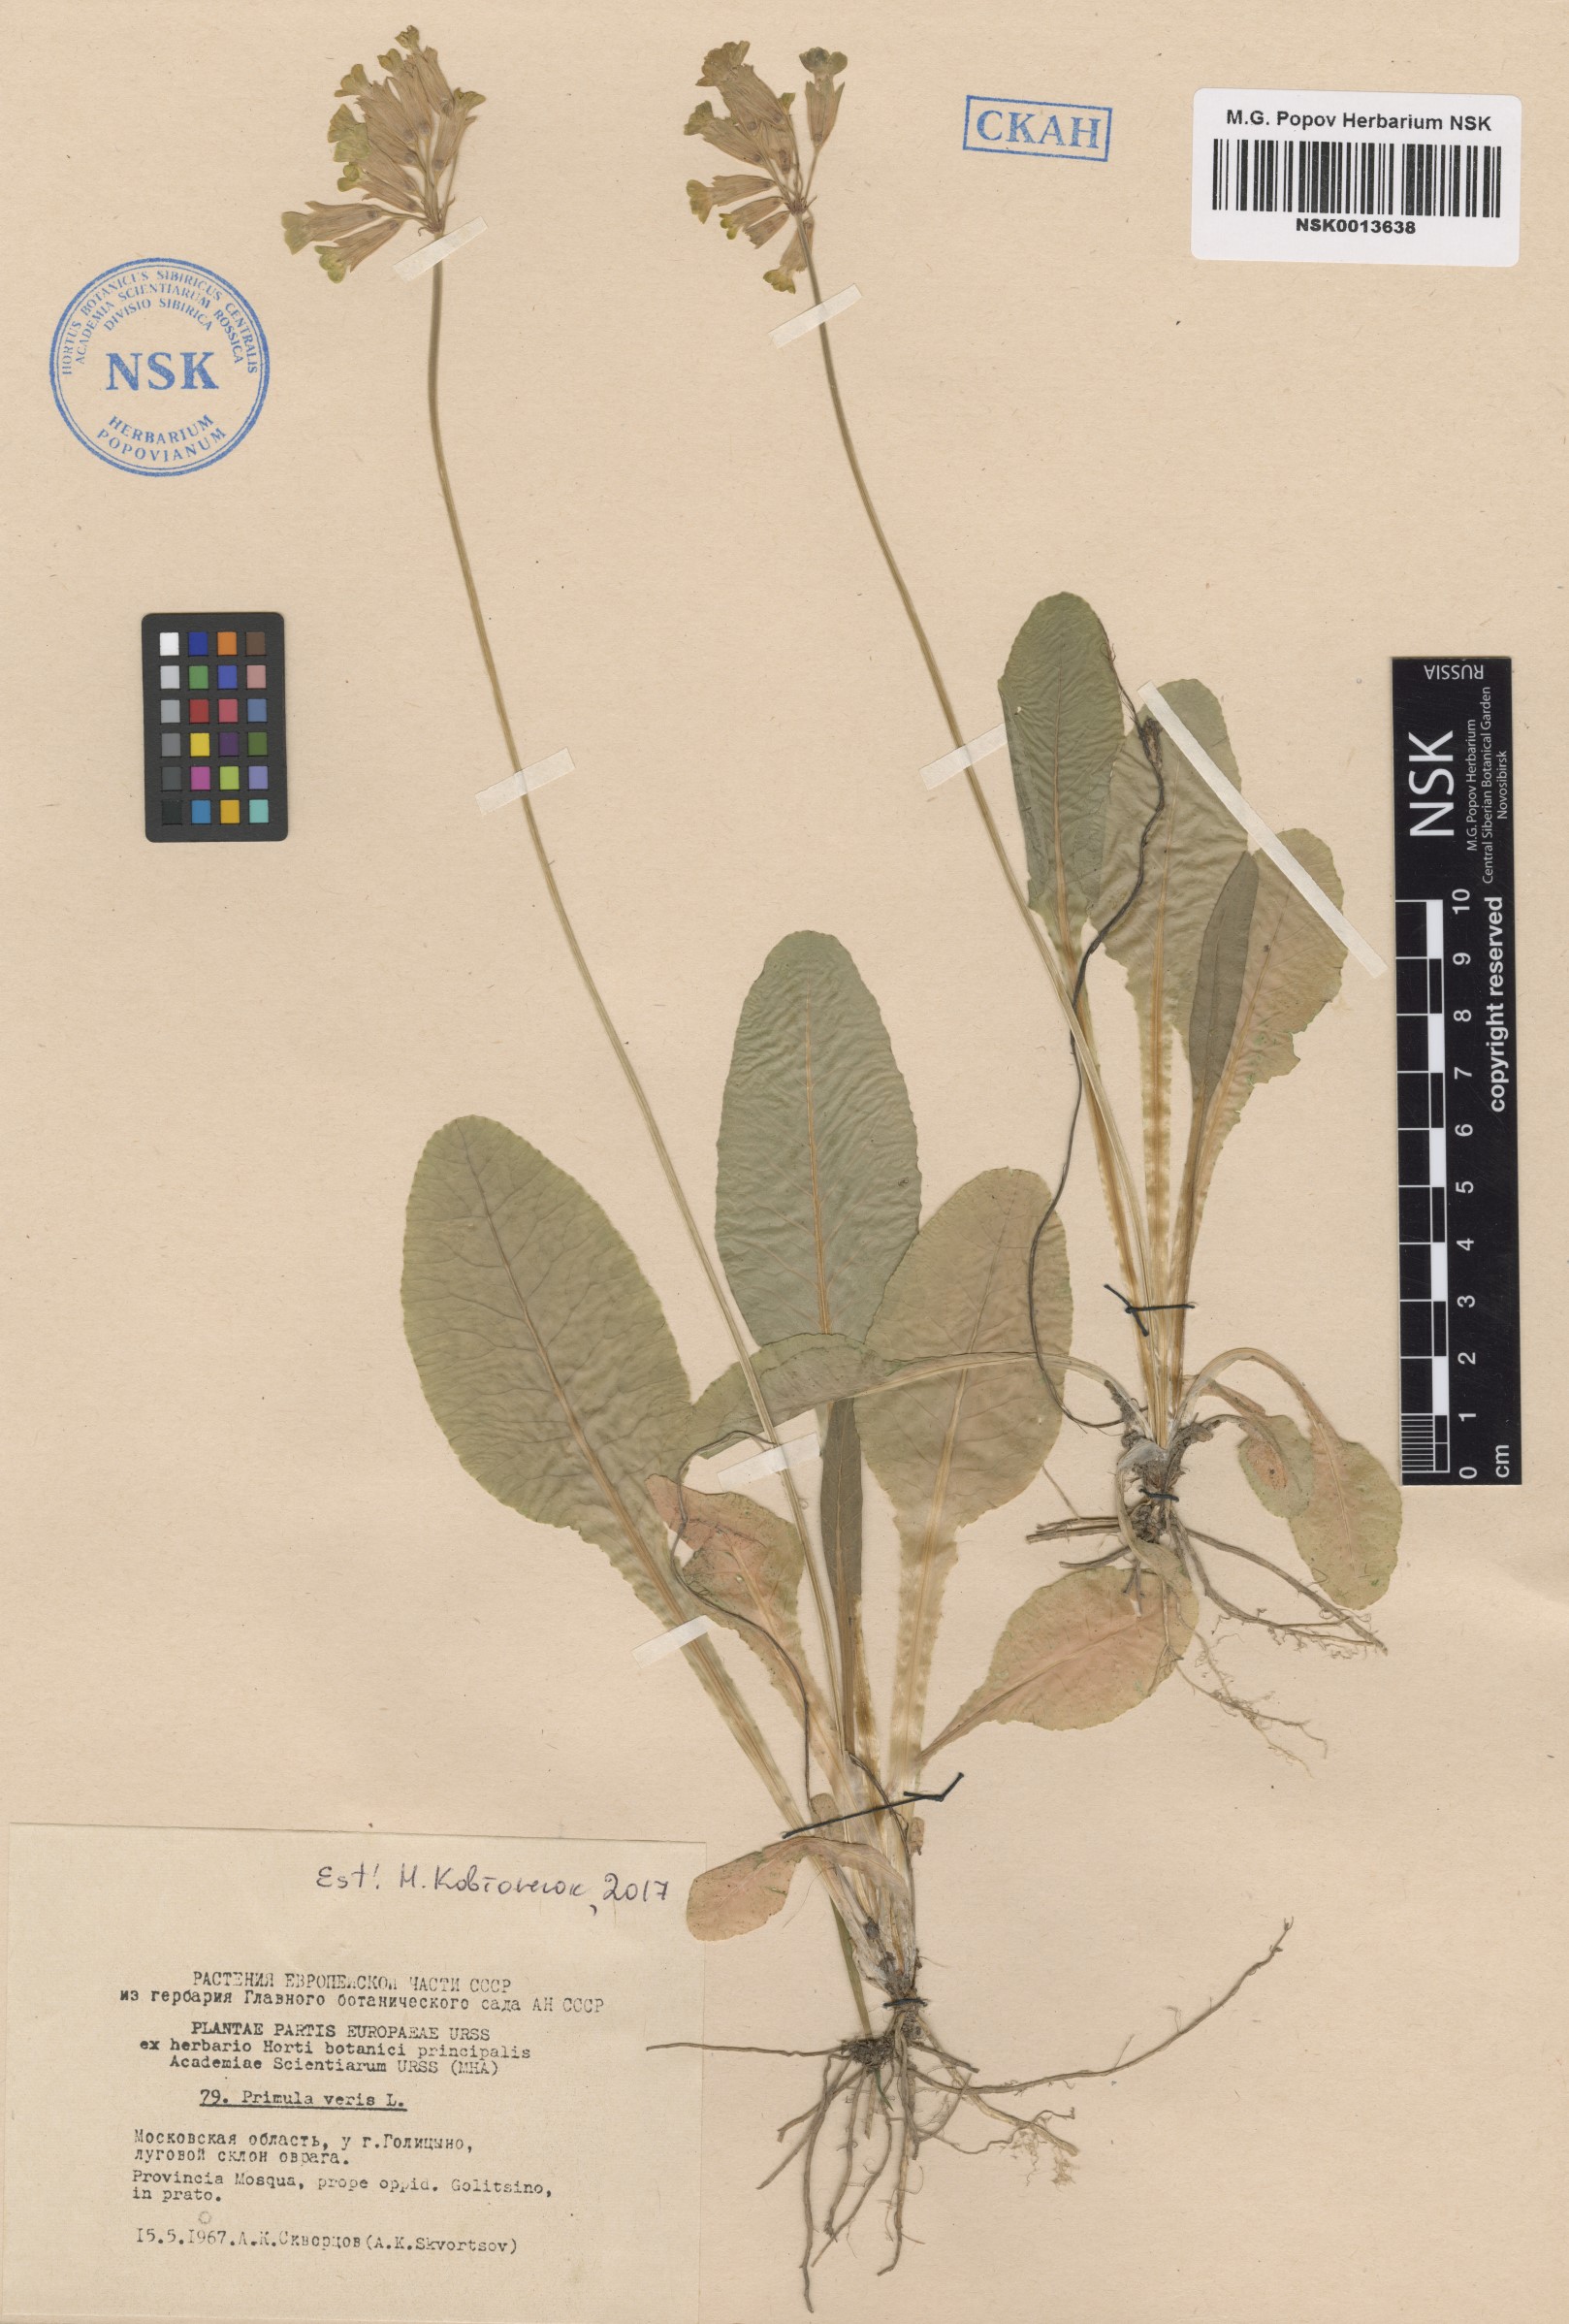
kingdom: Plantae
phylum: Tracheophyta
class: Magnoliopsida
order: Ericales
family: Primulaceae
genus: Primula
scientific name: Primula veris
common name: Cowslip
